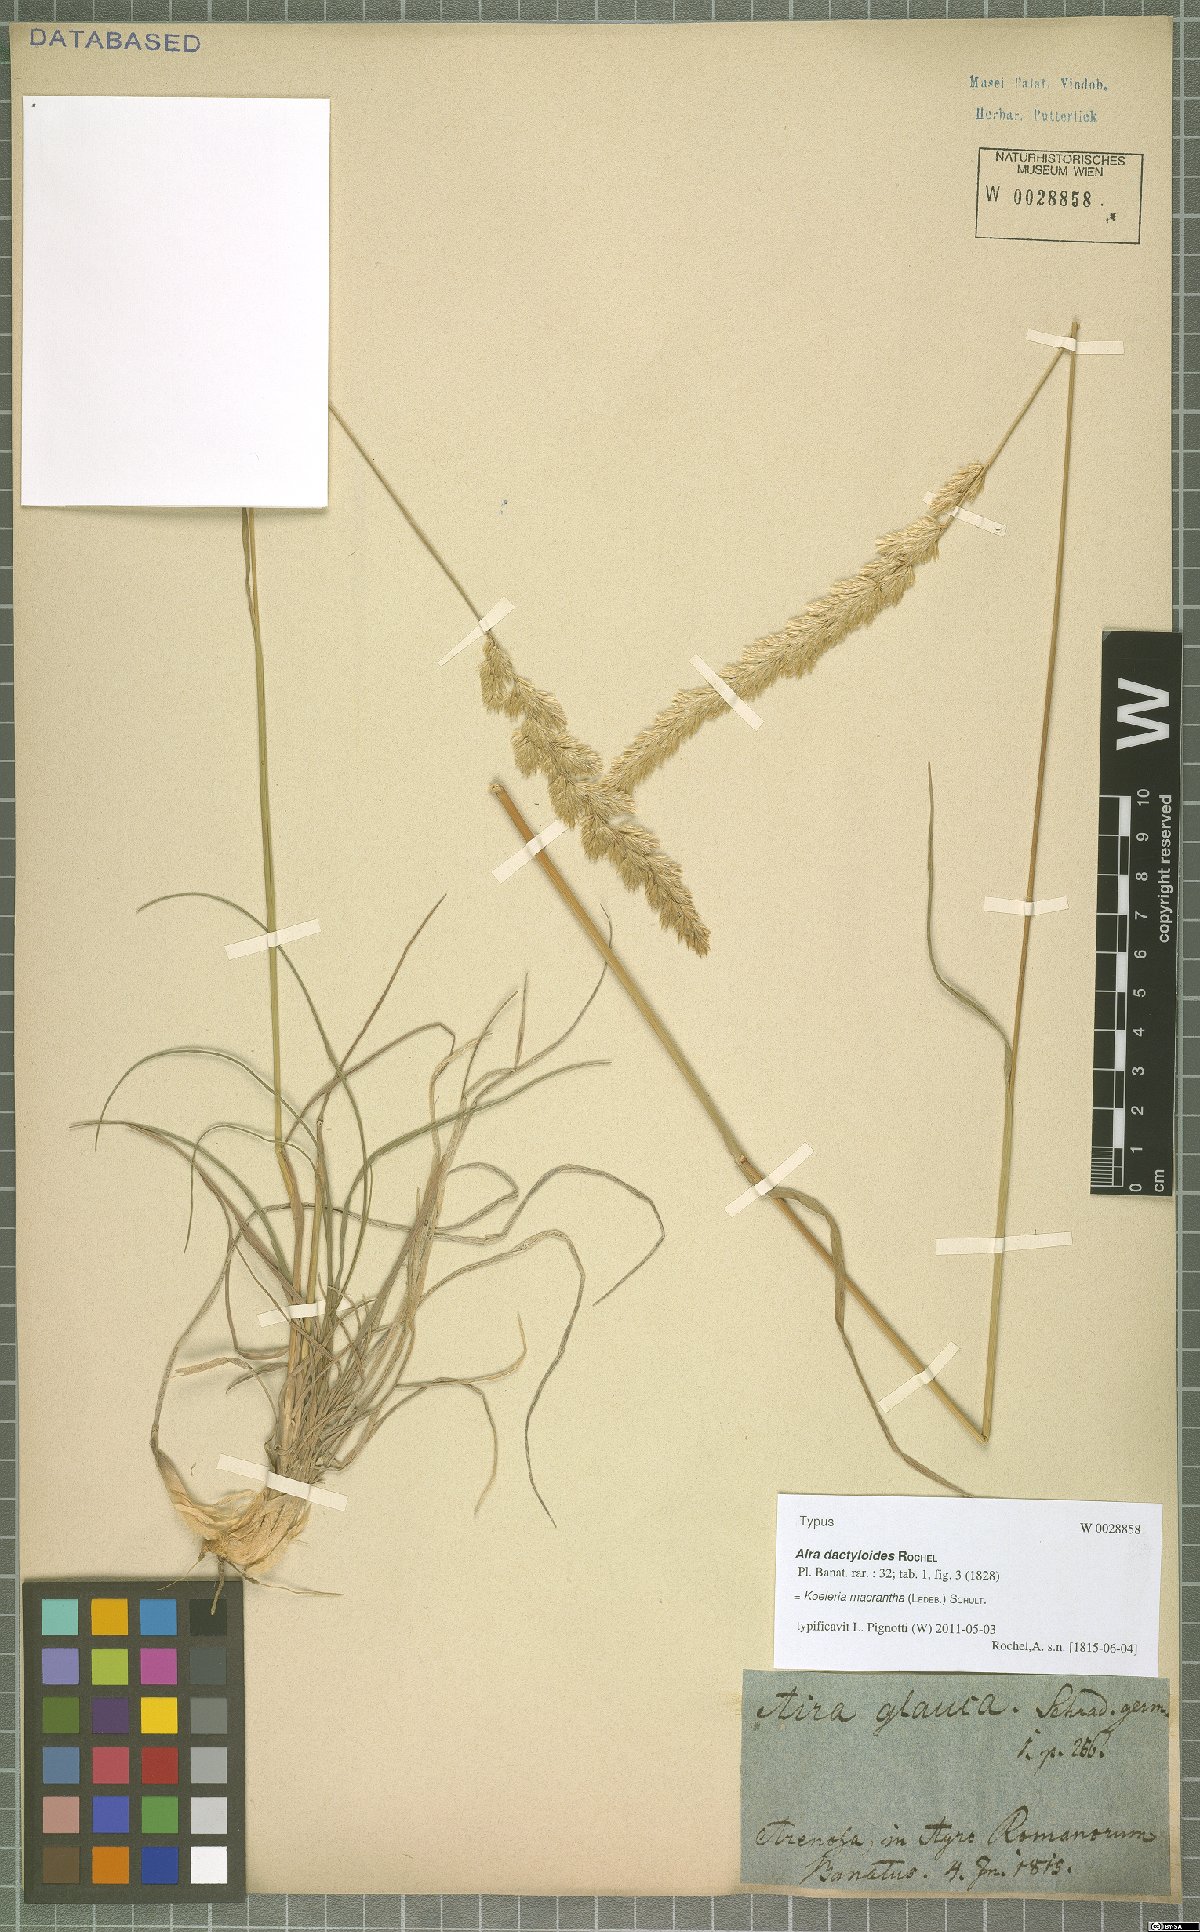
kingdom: Plantae
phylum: Tracheophyta
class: Liliopsida
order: Poales
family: Poaceae
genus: Koeleria
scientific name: Koeleria macrantha
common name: Crested hair-grass
